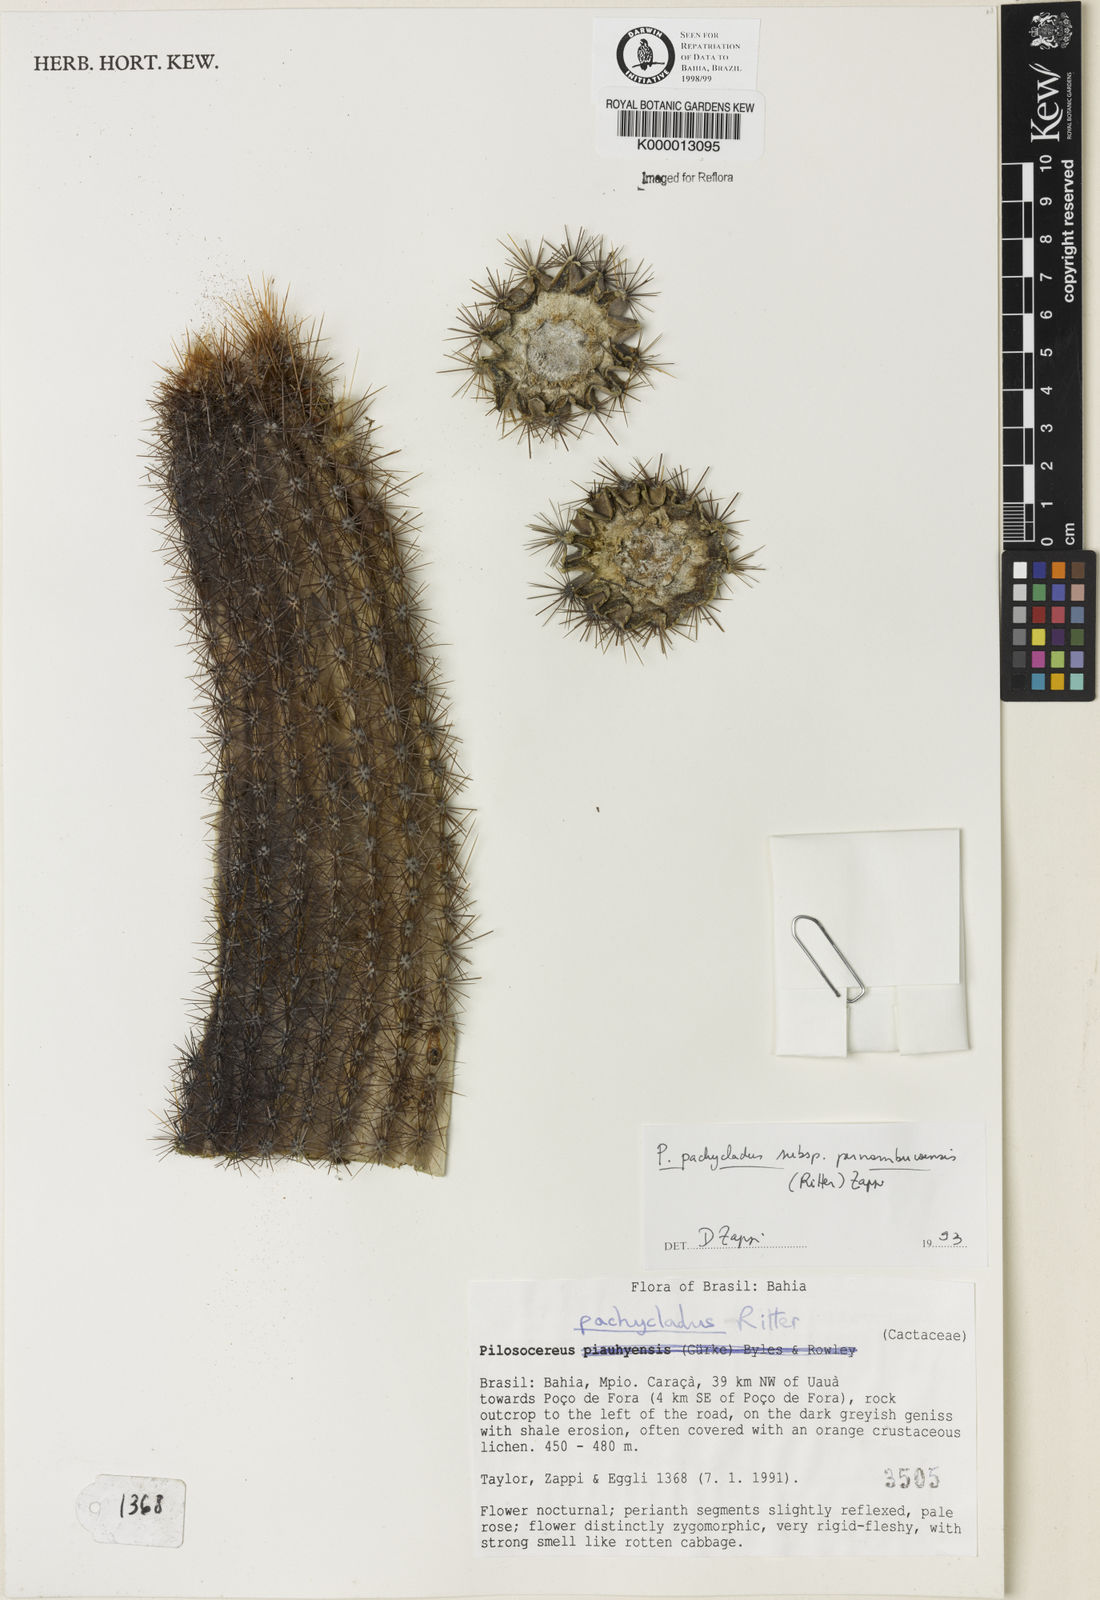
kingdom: Plantae
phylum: Tracheophyta
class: Magnoliopsida
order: Caryophyllales
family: Cactaceae
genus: Pilosocereus
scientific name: Pilosocereus pachycladus
